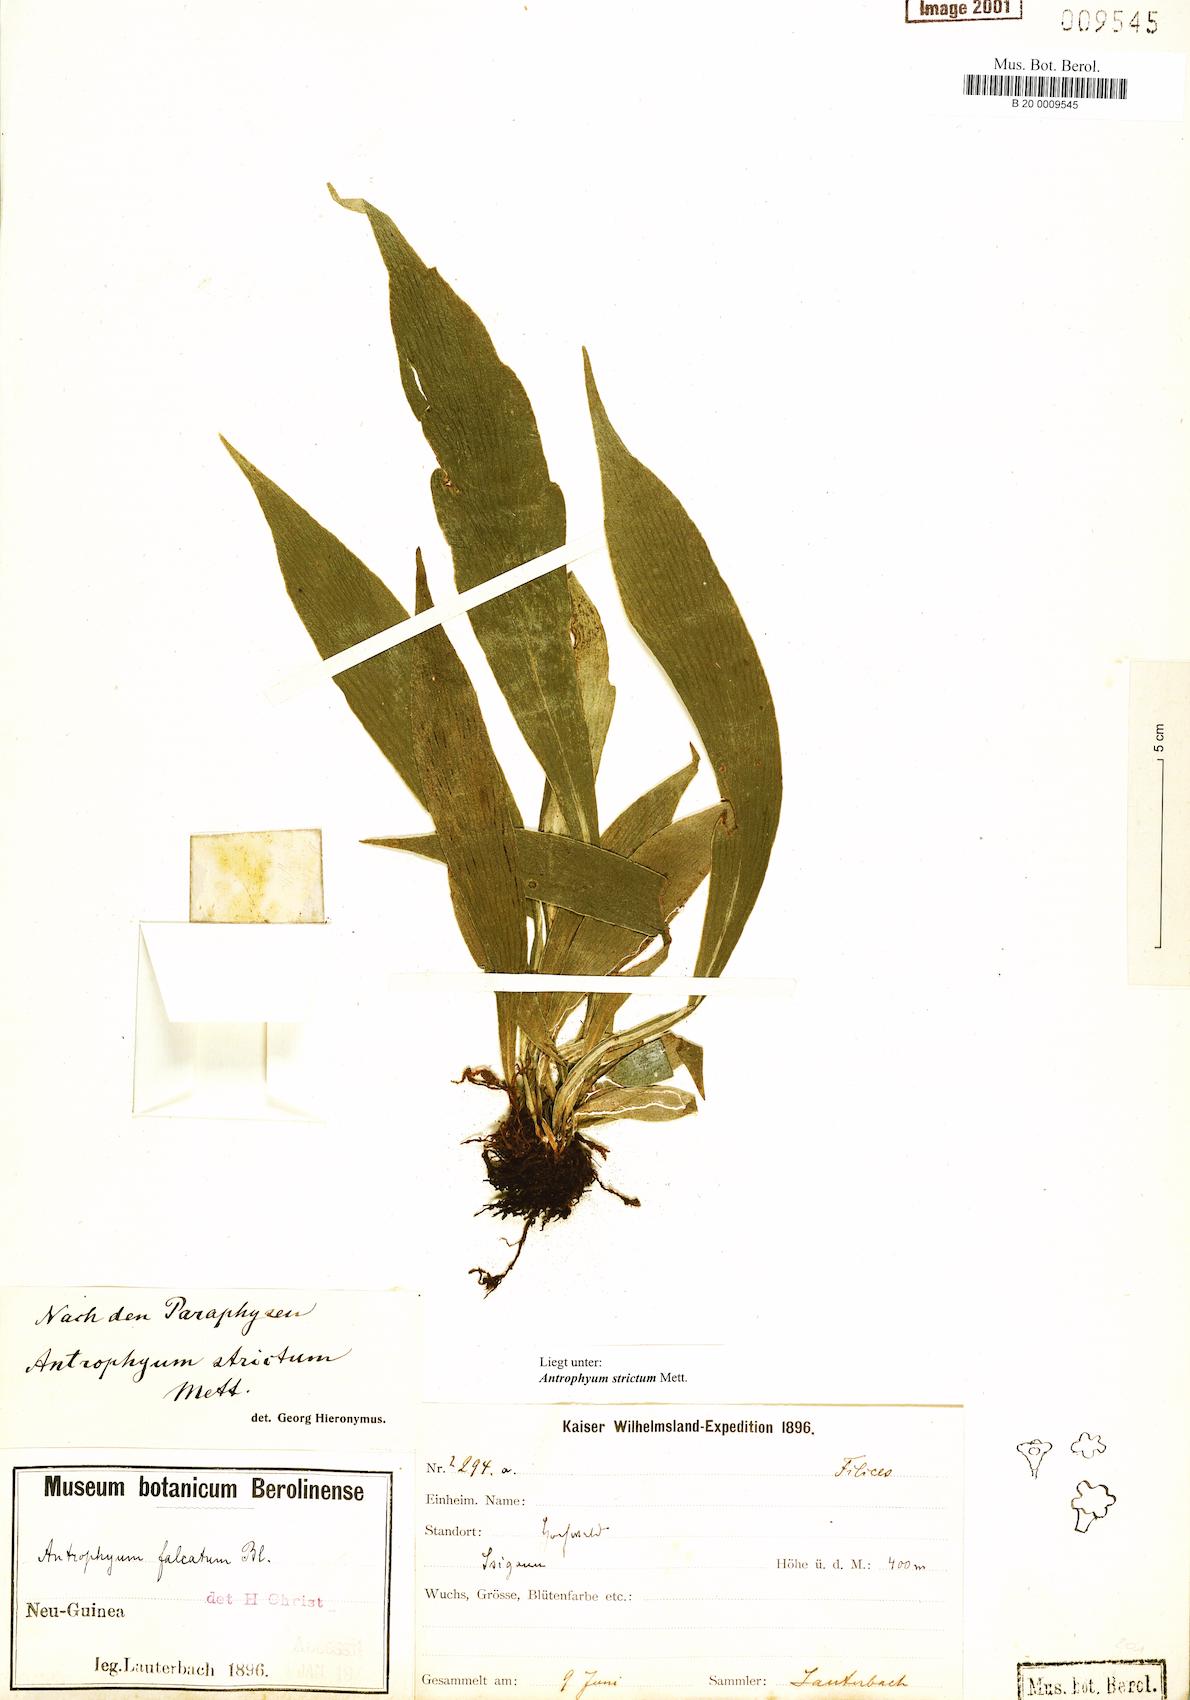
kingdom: Plantae
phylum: Tracheophyta
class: Polypodiopsida
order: Polypodiales
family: Pteridaceae
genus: Antrophyum
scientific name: Antrophyum strictum
